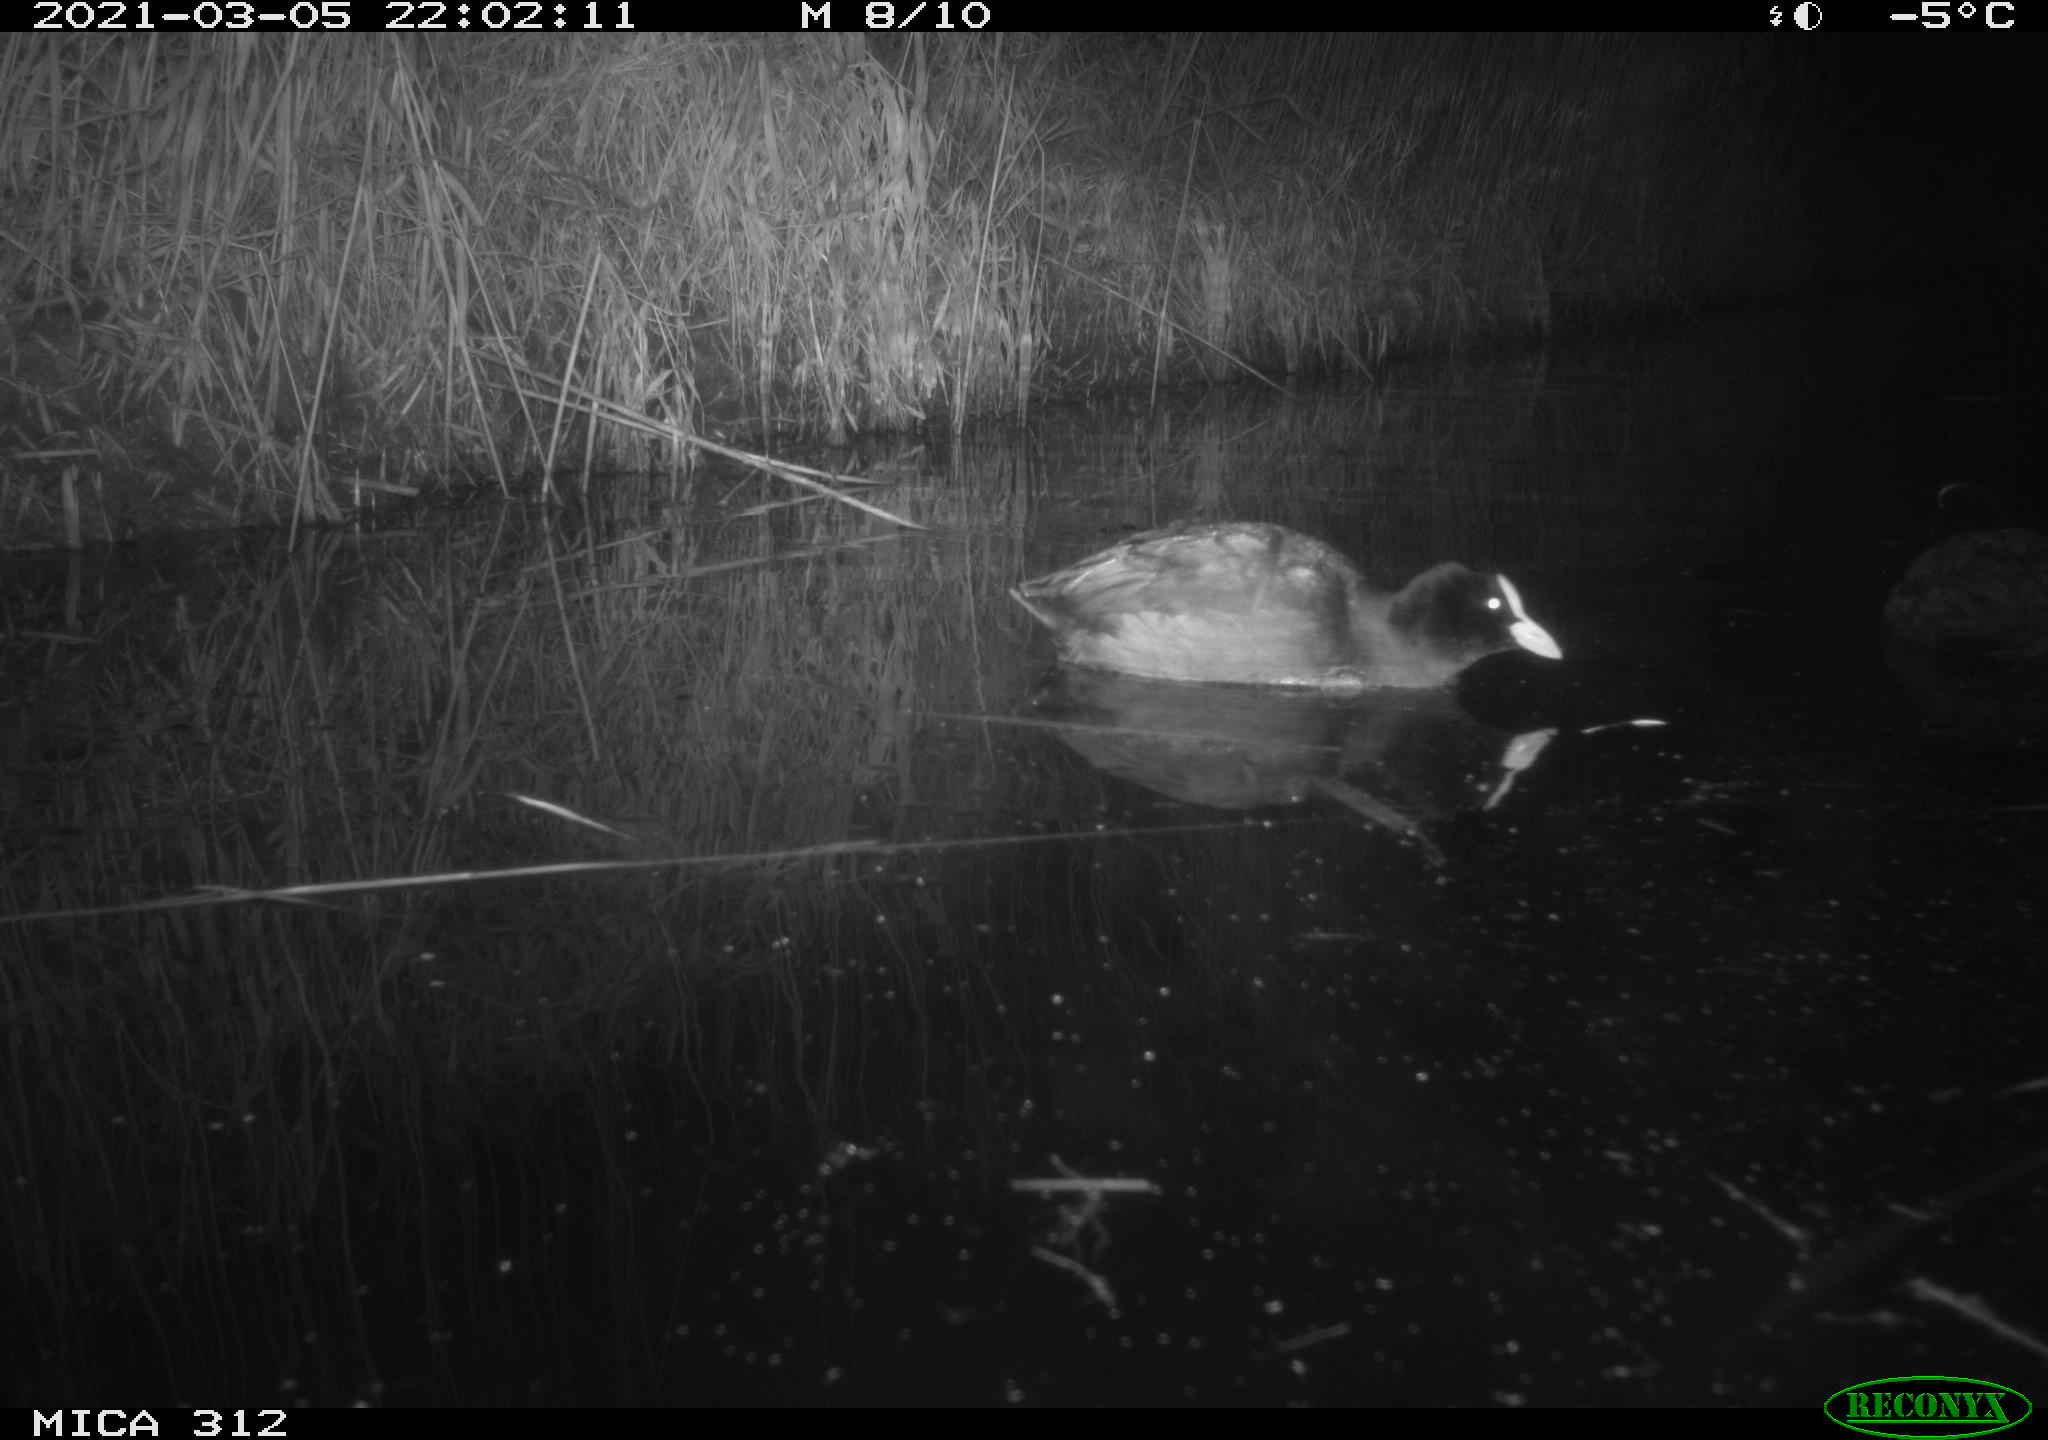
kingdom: Animalia
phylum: Chordata
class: Aves
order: Gruiformes
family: Rallidae
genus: Fulica
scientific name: Fulica atra
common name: Eurasian coot
